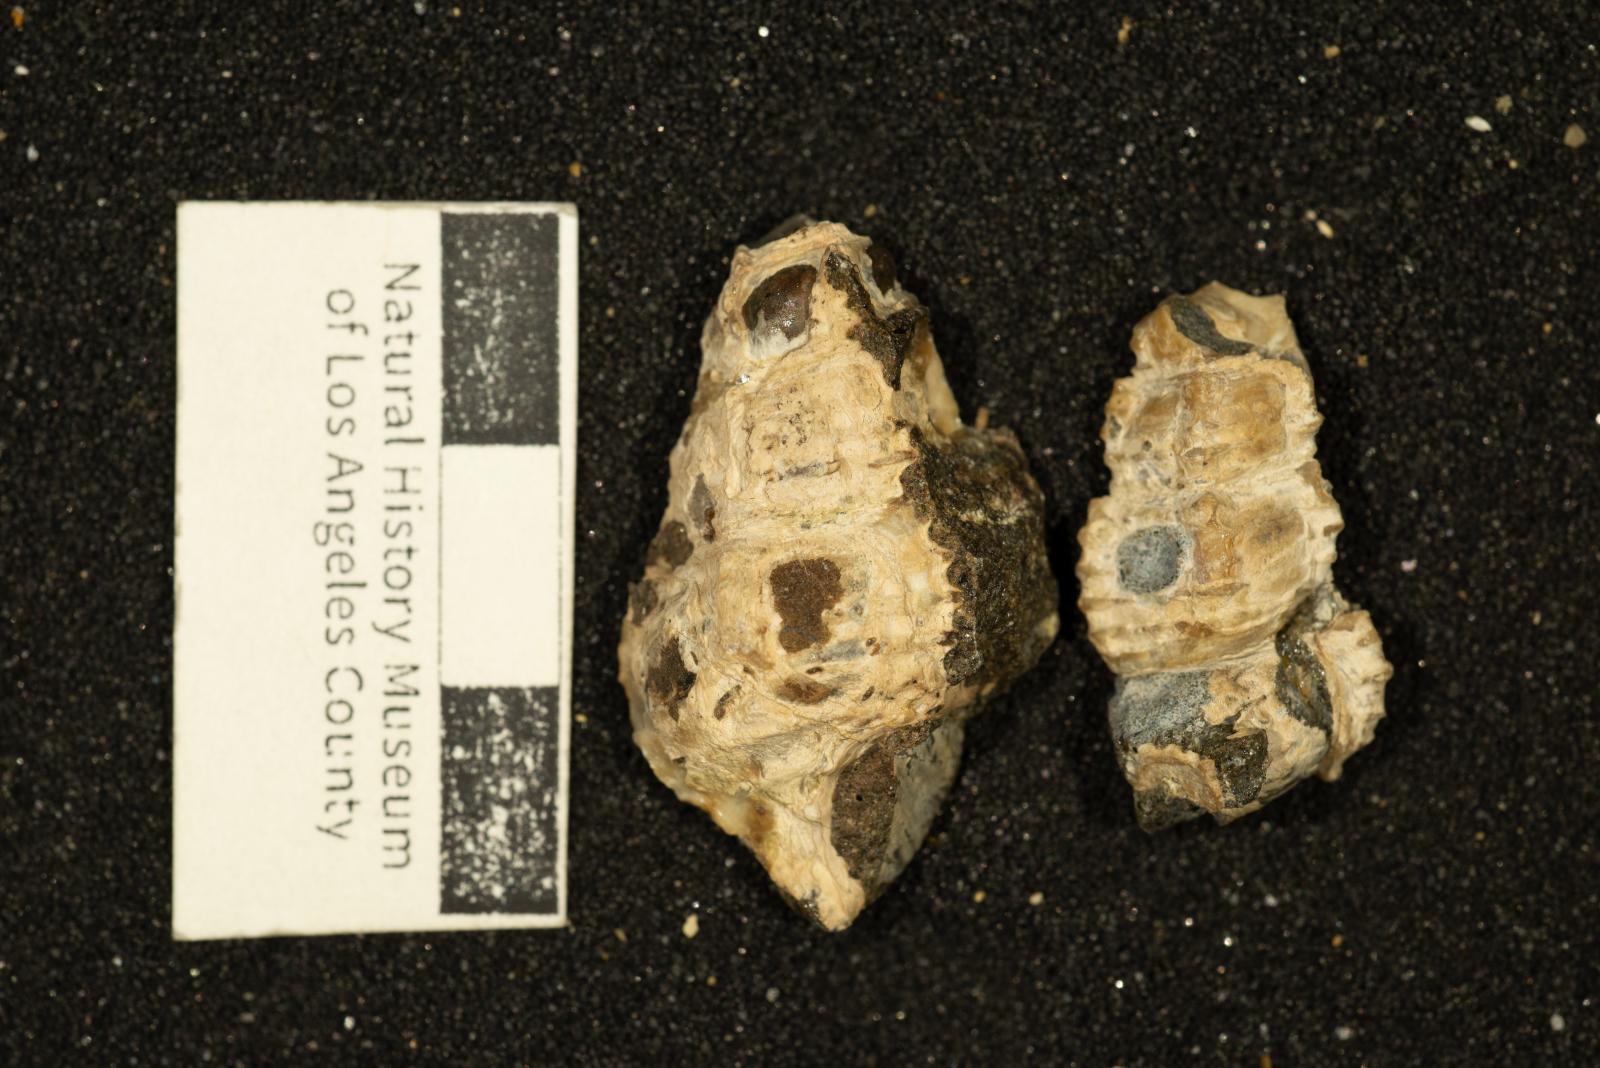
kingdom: Animalia
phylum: Mollusca
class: Gastropoda
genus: Alamirifica
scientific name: Alamirifica Cerithium harveyi
